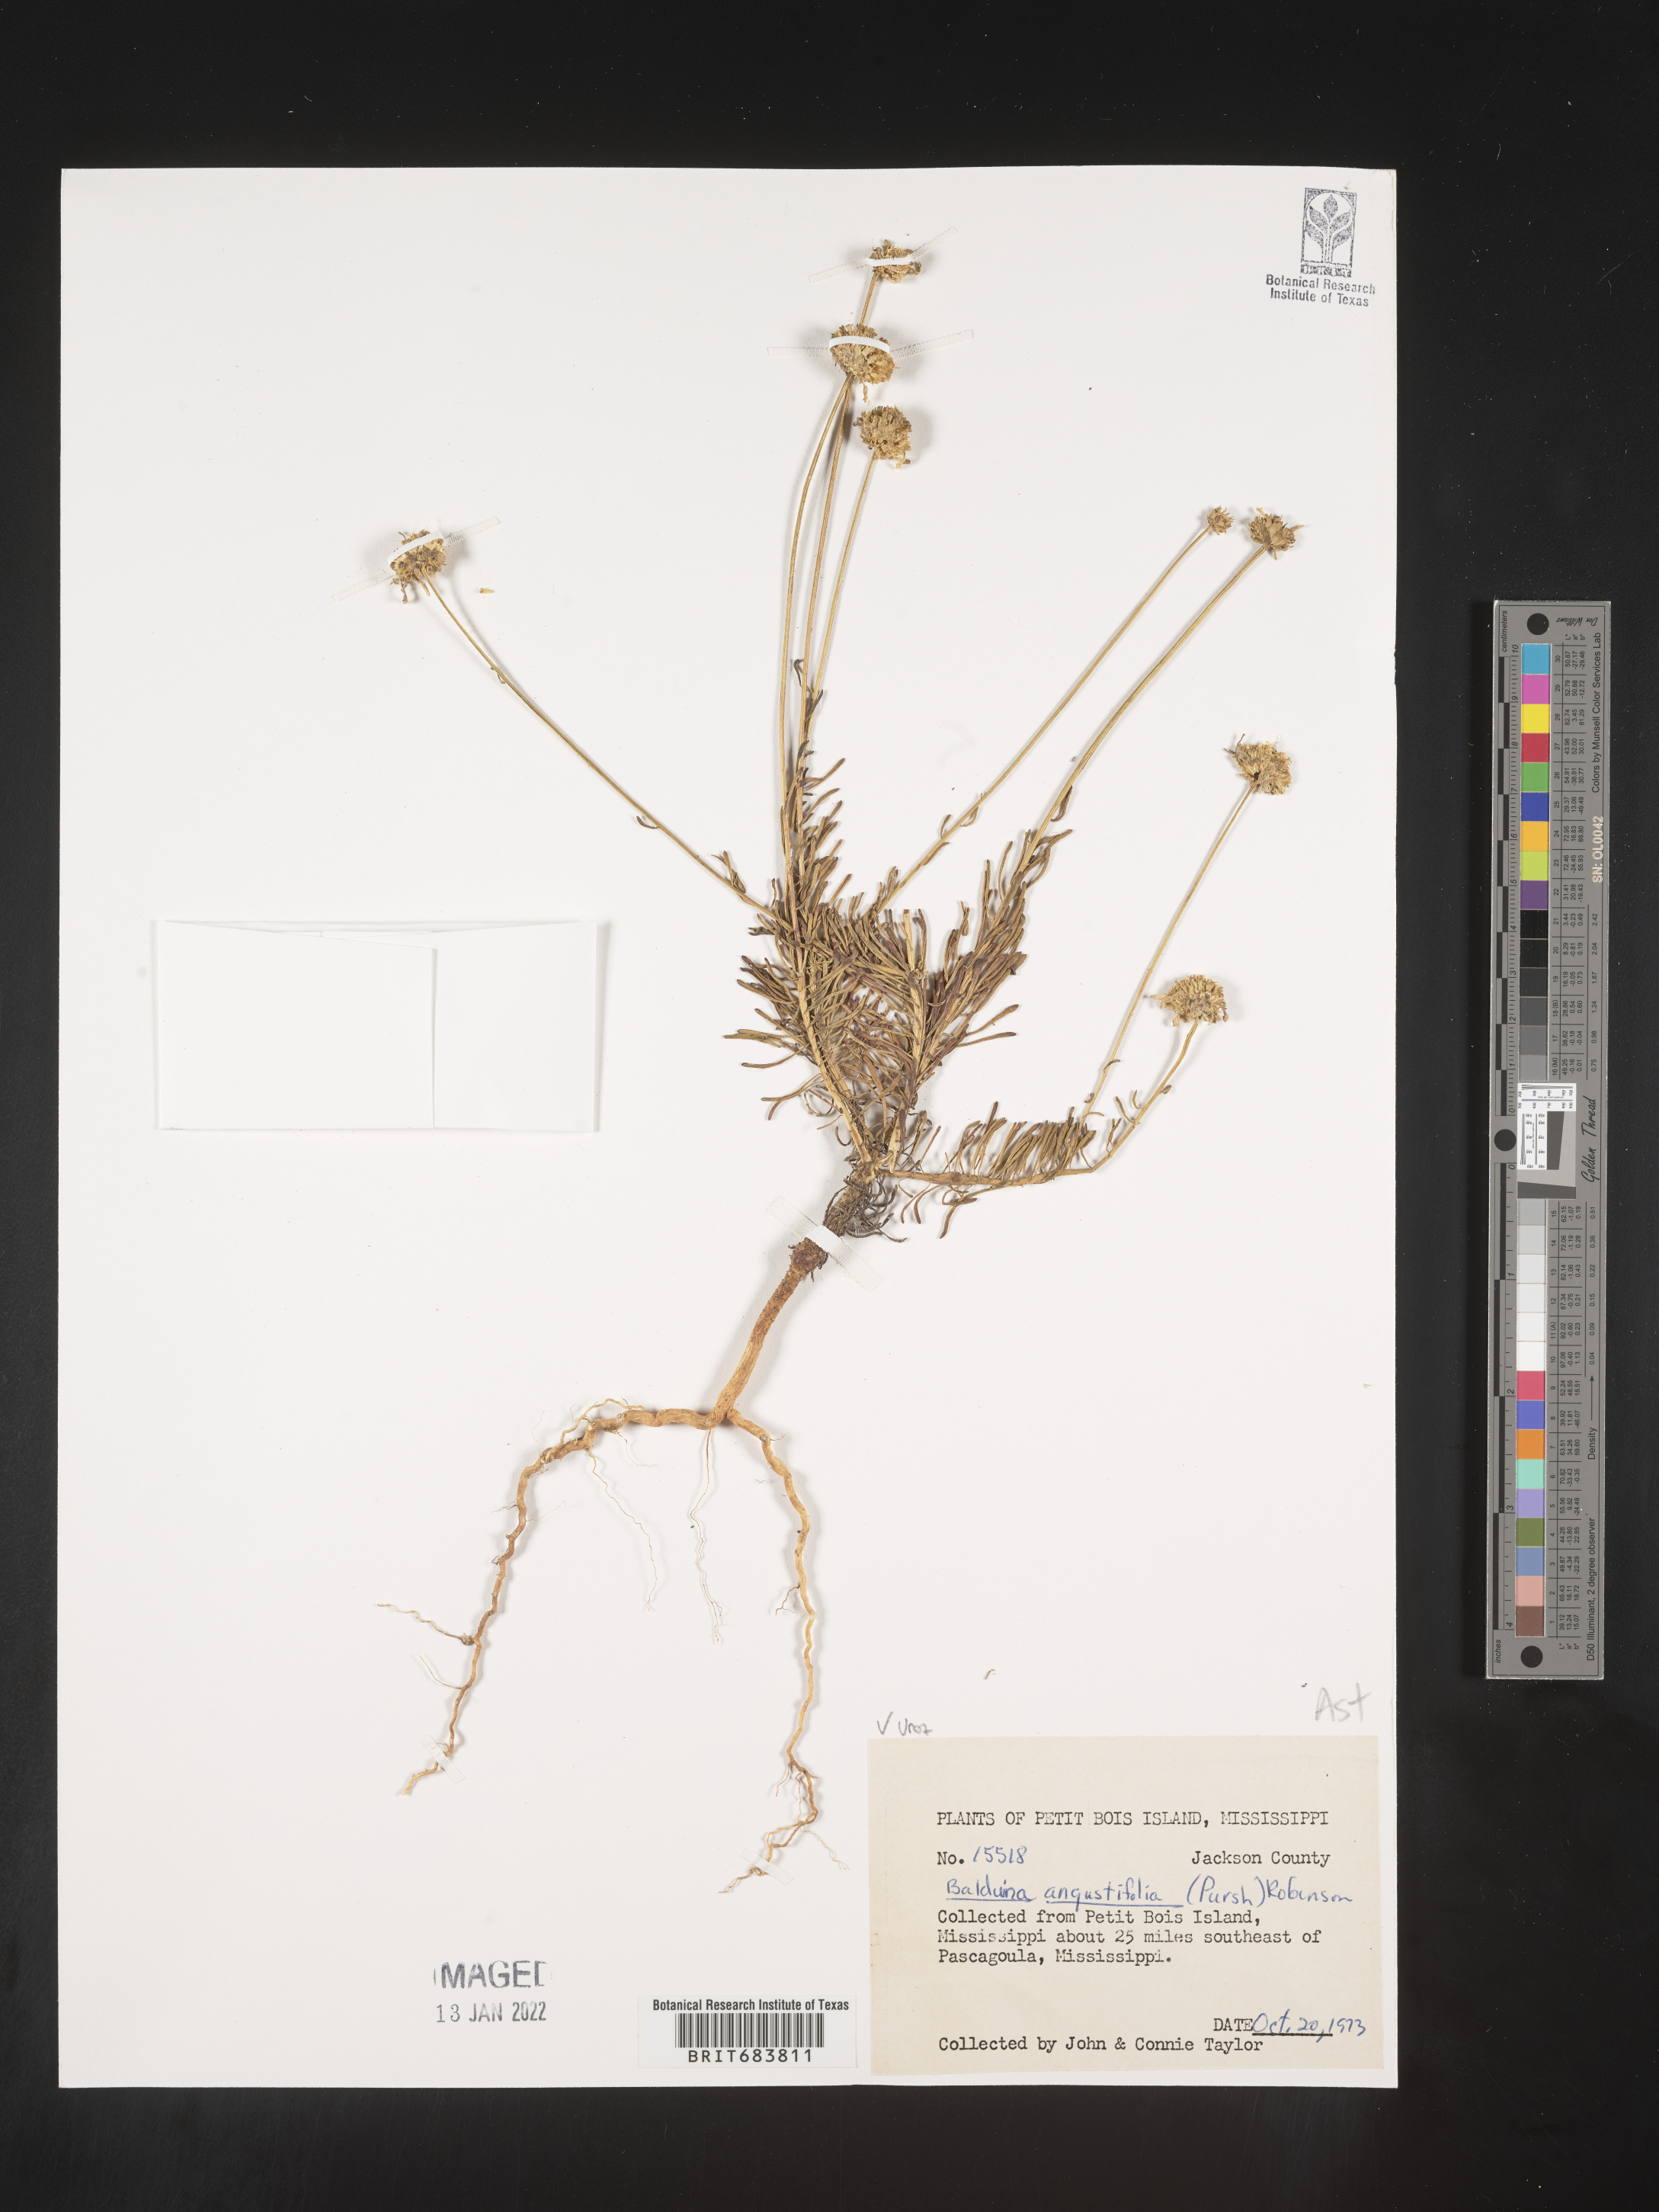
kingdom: Plantae
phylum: Tracheophyta
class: Magnoliopsida
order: Asterales
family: Asteraceae
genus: Balduina
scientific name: Balduina angustifolia
